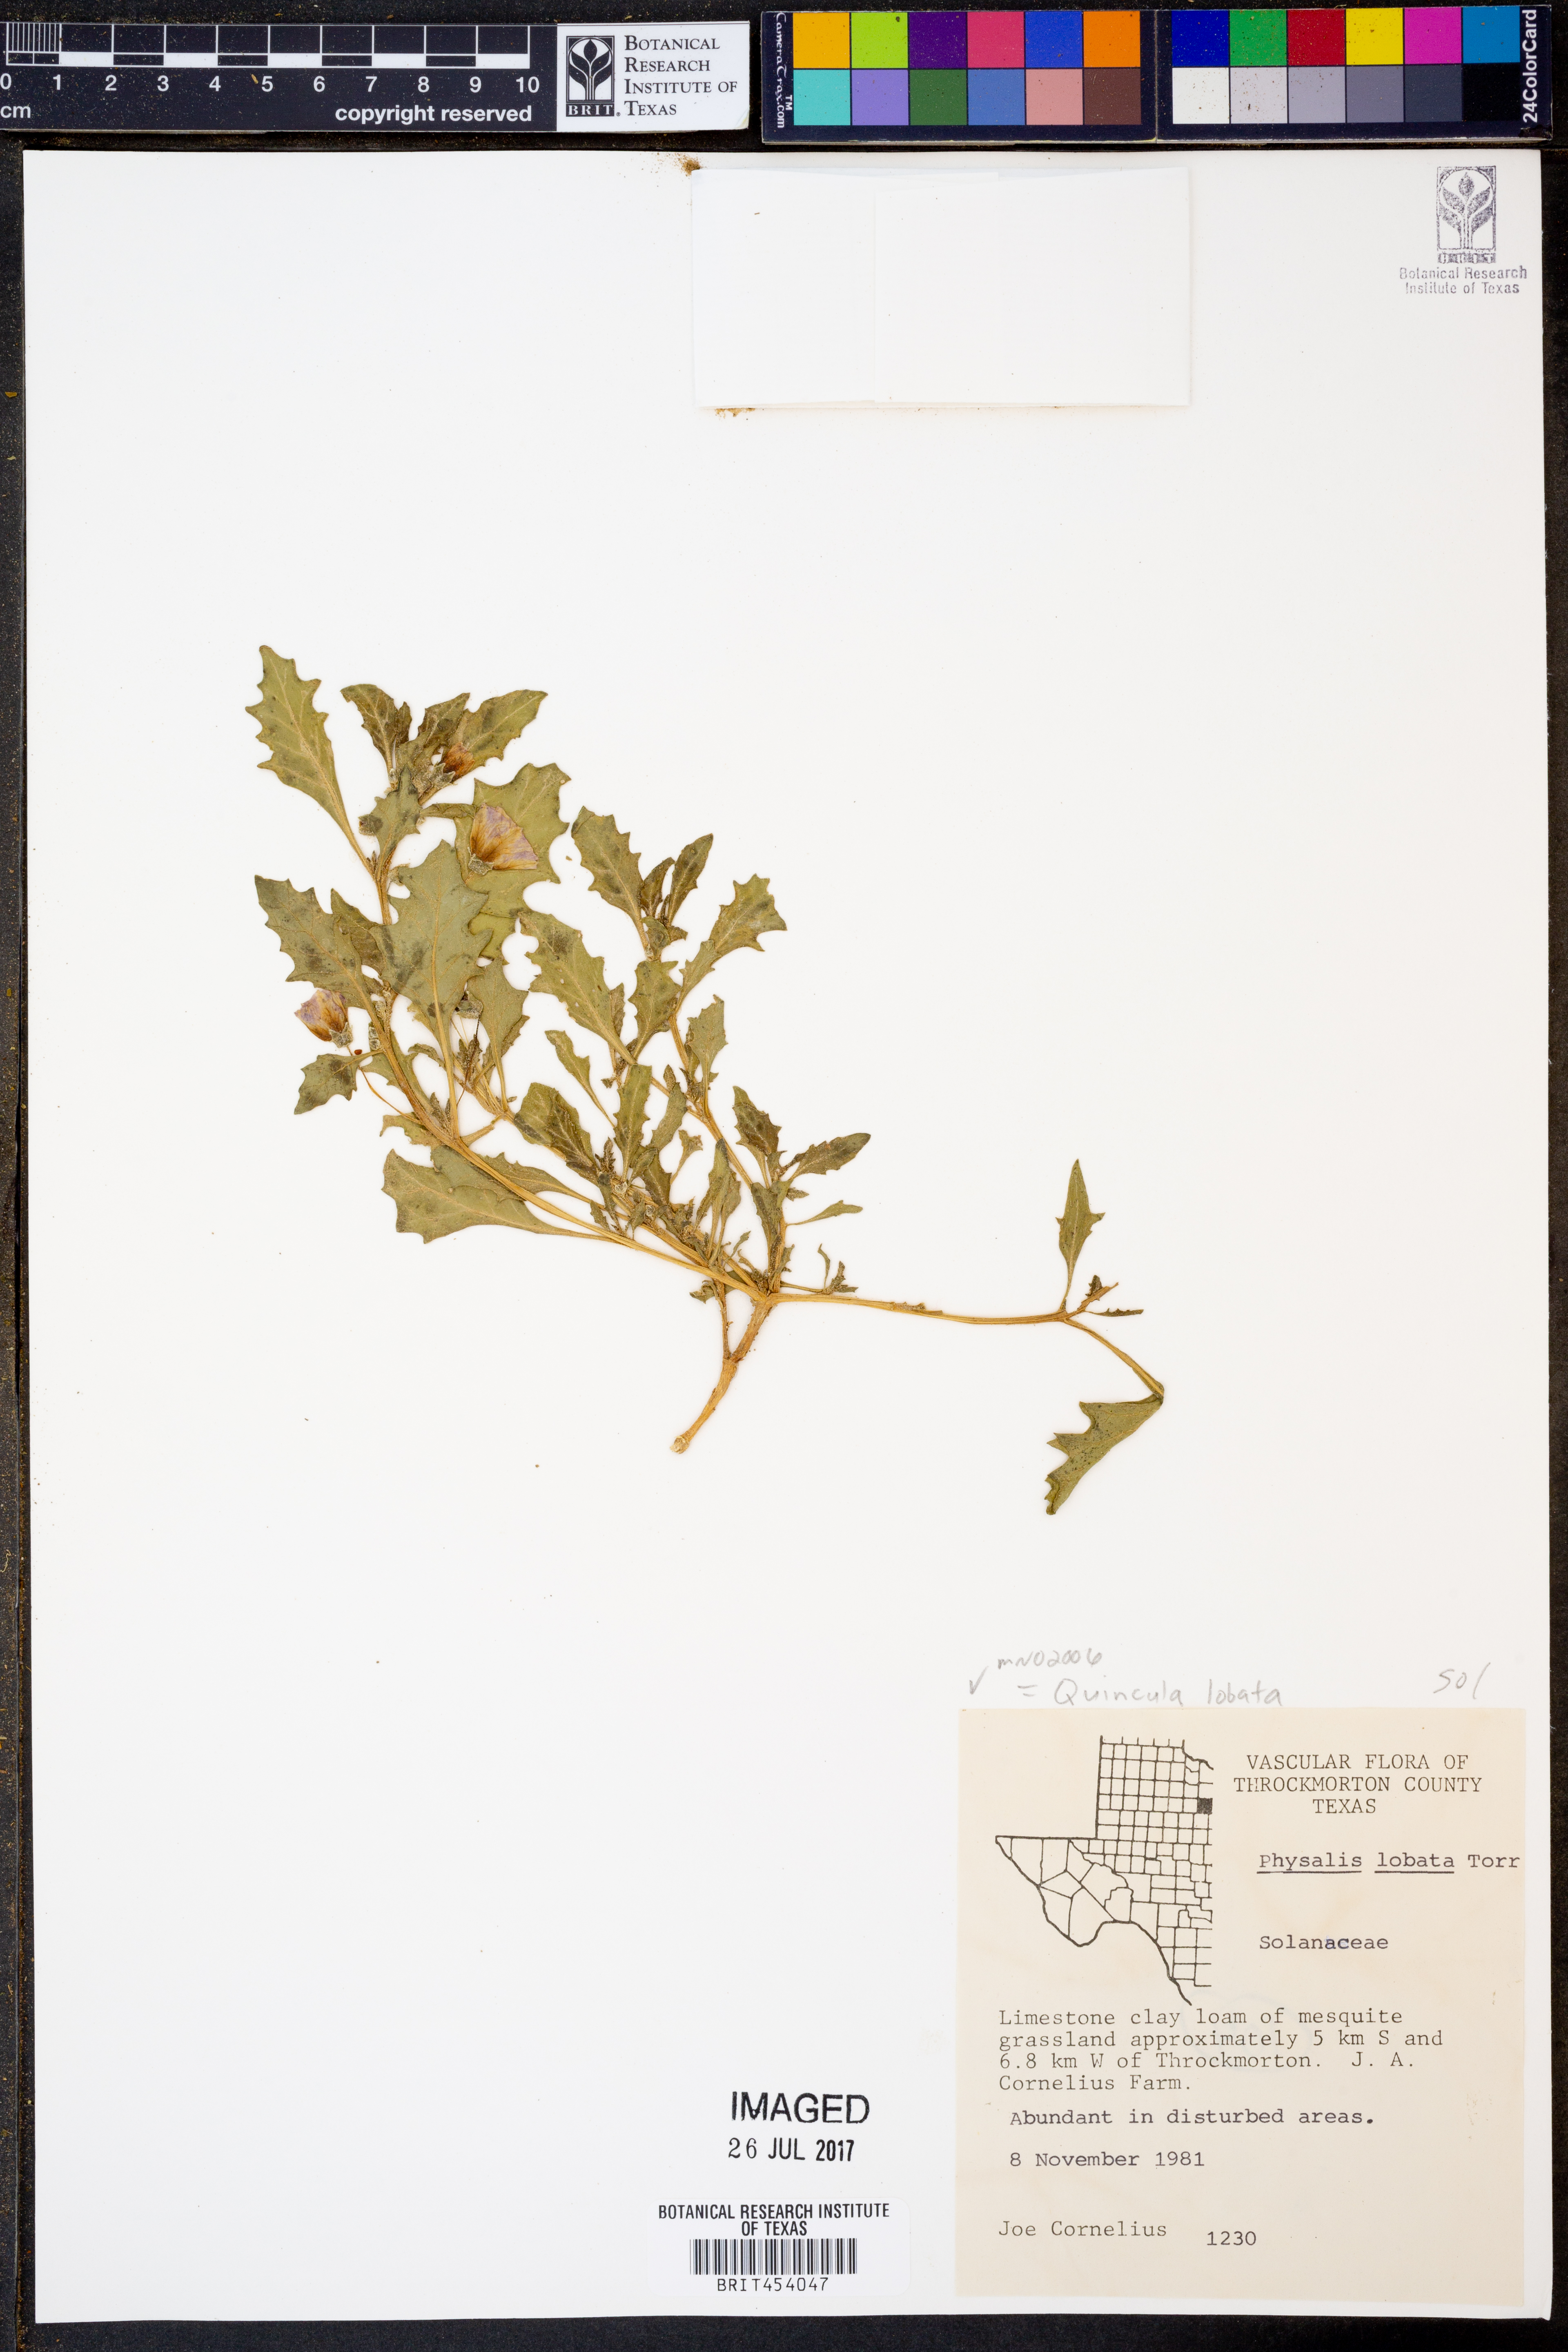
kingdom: Plantae
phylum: Tracheophyta
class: Magnoliopsida
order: Solanales
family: Solanaceae
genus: Quincula
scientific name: Quincula lobata
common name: Purple-ground-cherry
